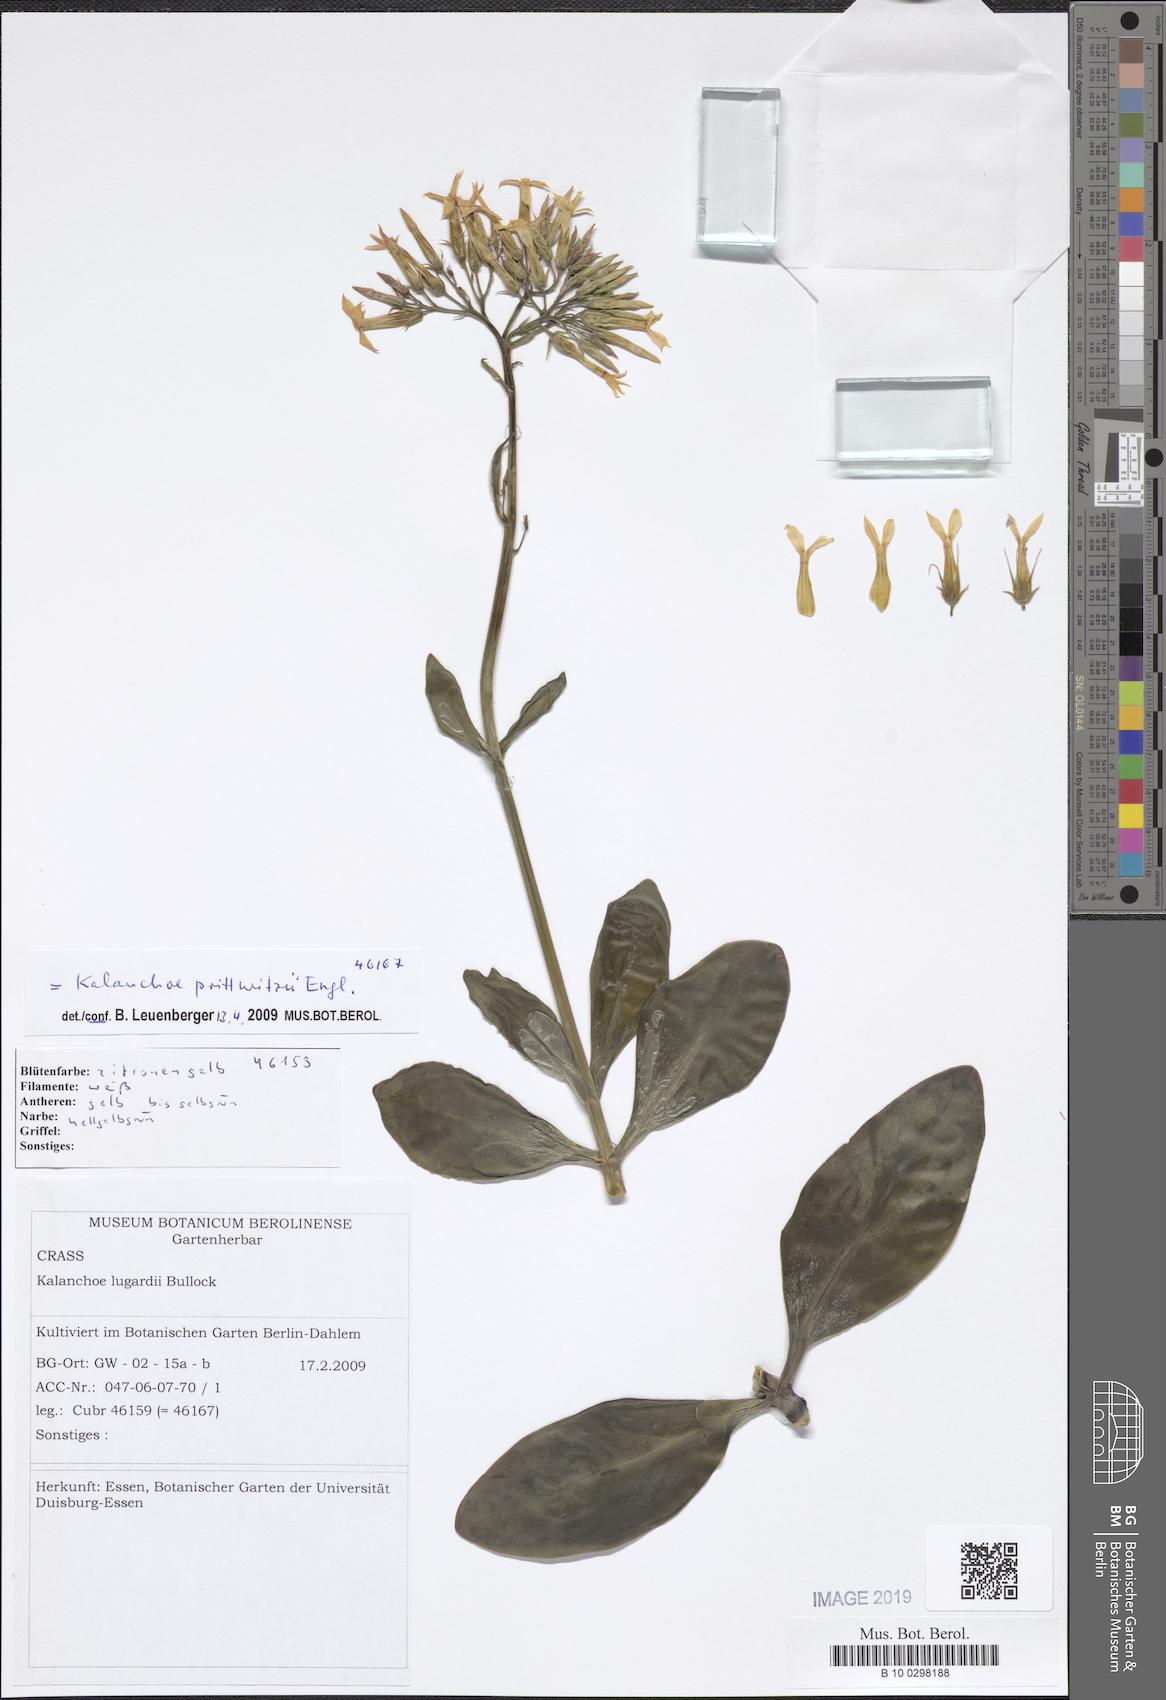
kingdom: Plantae
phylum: Tracheophyta
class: Magnoliopsida
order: Saxifragales
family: Crassulaceae
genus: Kalanchoe
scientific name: Kalanchoe prittwitzii
